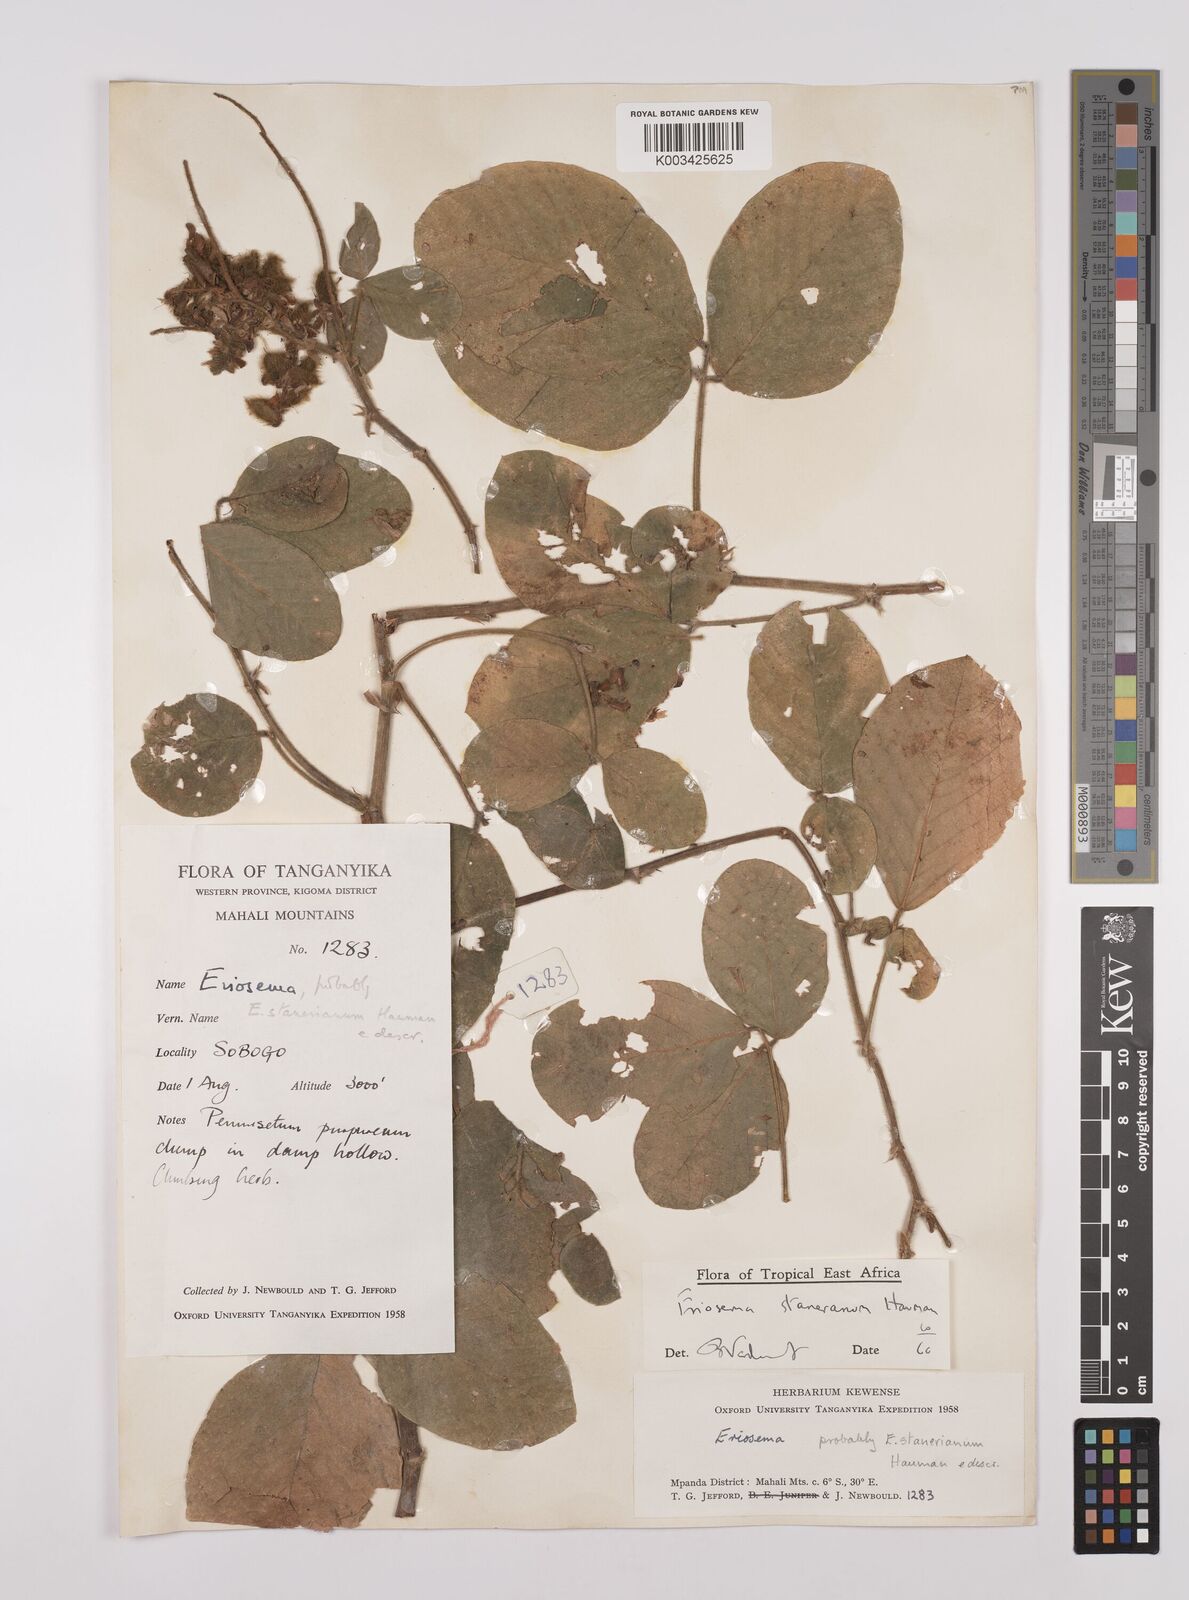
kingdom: Plantae
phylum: Tracheophyta
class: Magnoliopsida
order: Fabales
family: Fabaceae
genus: Eriosema
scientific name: Eriosema angolense
